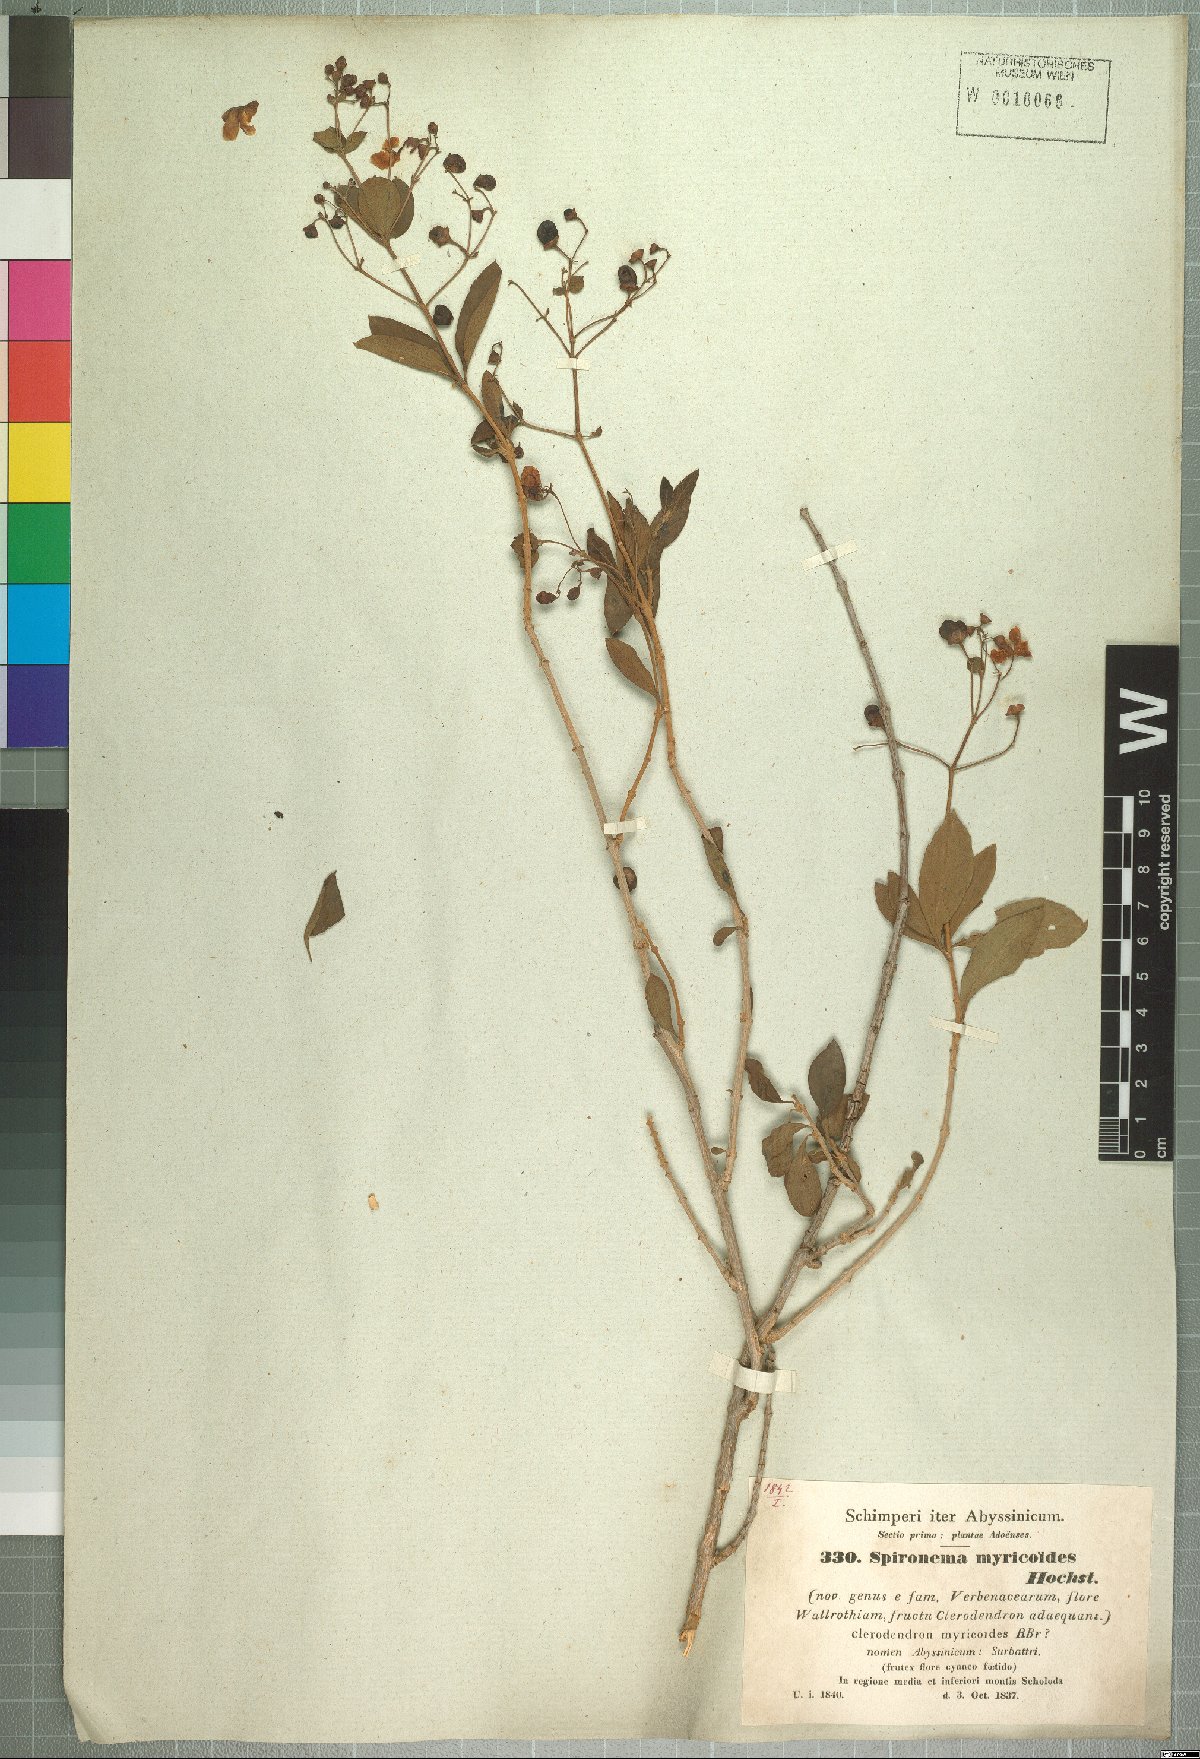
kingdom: Plantae
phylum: Tracheophyta
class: Magnoliopsida
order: Lamiales
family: Lamiaceae
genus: Rotheca
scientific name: Rotheca myricoides
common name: Cats-whiskers
